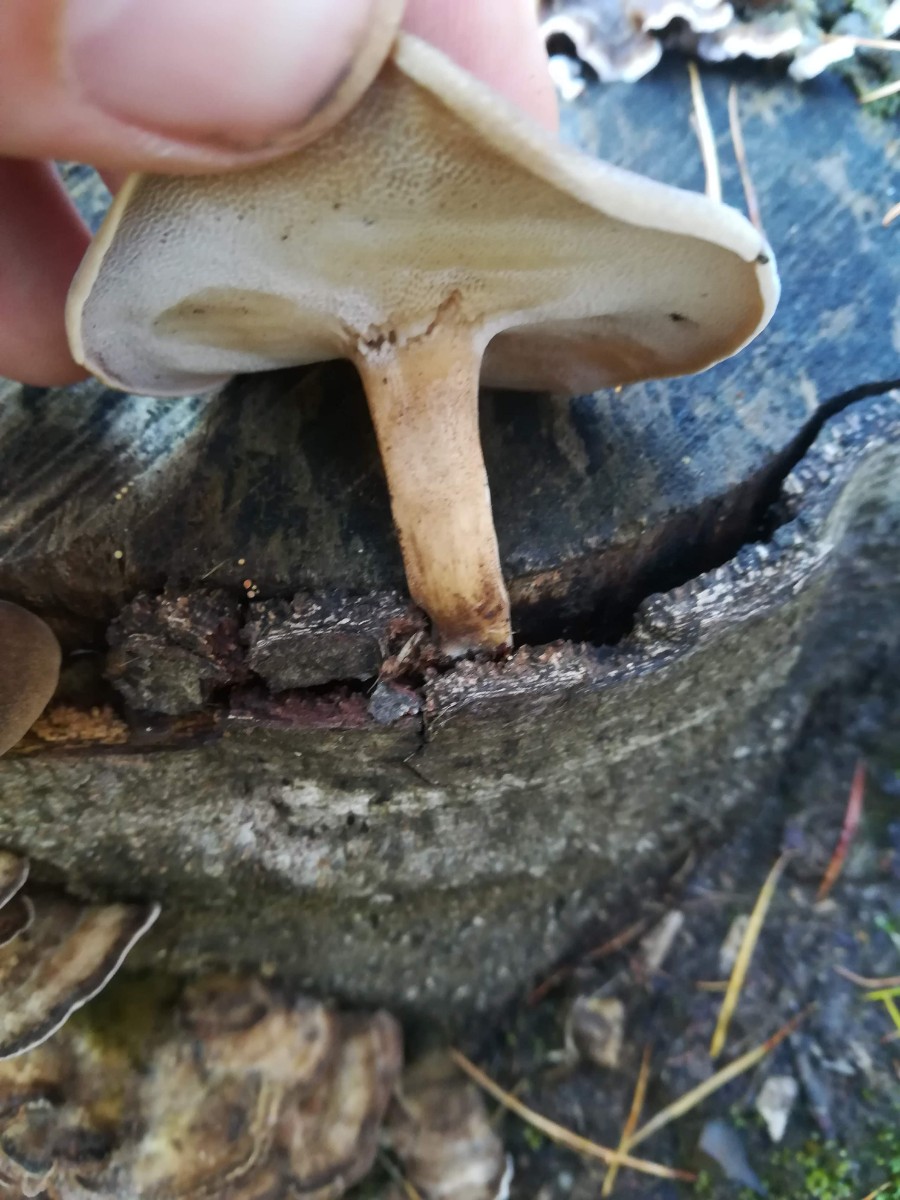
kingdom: Fungi
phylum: Basidiomycota
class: Agaricomycetes
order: Polyporales
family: Polyporaceae
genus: Lentinus
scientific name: Lentinus brumalis
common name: vinter-stilkporesvamp
